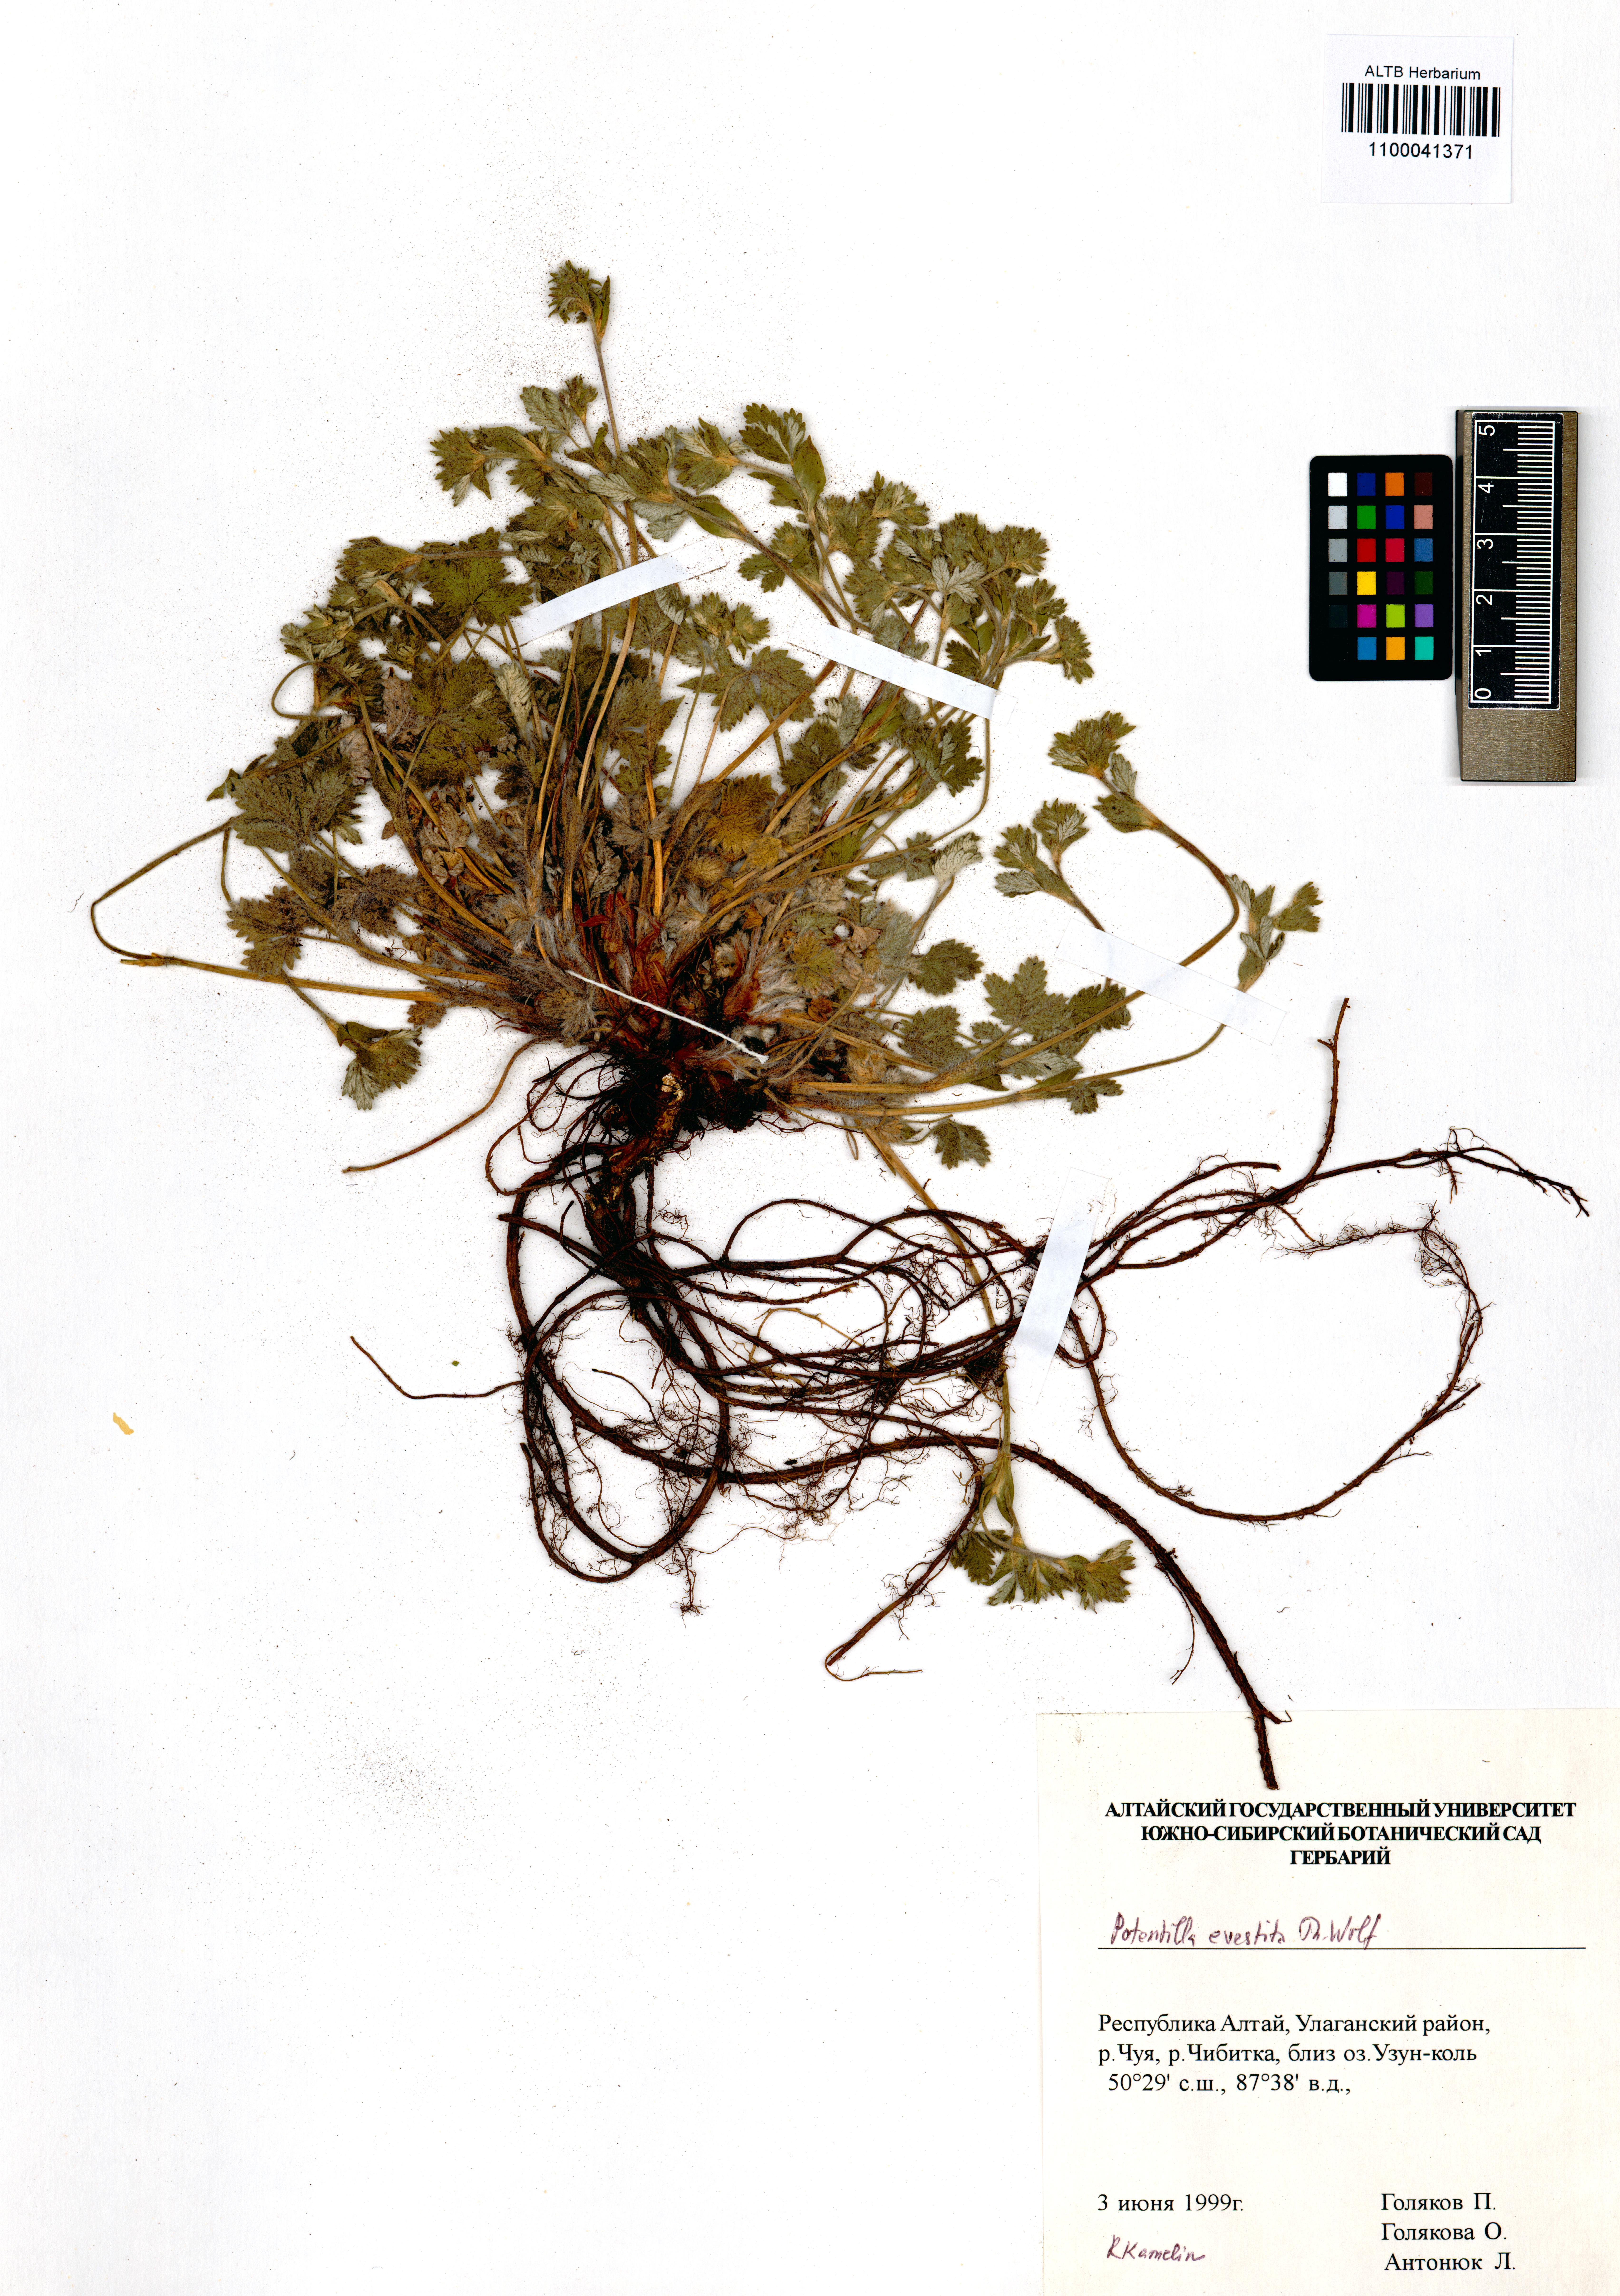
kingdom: Plantae
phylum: Tracheophyta
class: Magnoliopsida
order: Rosales
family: Rosaceae
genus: Potentilla
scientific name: Potentilla evestita
